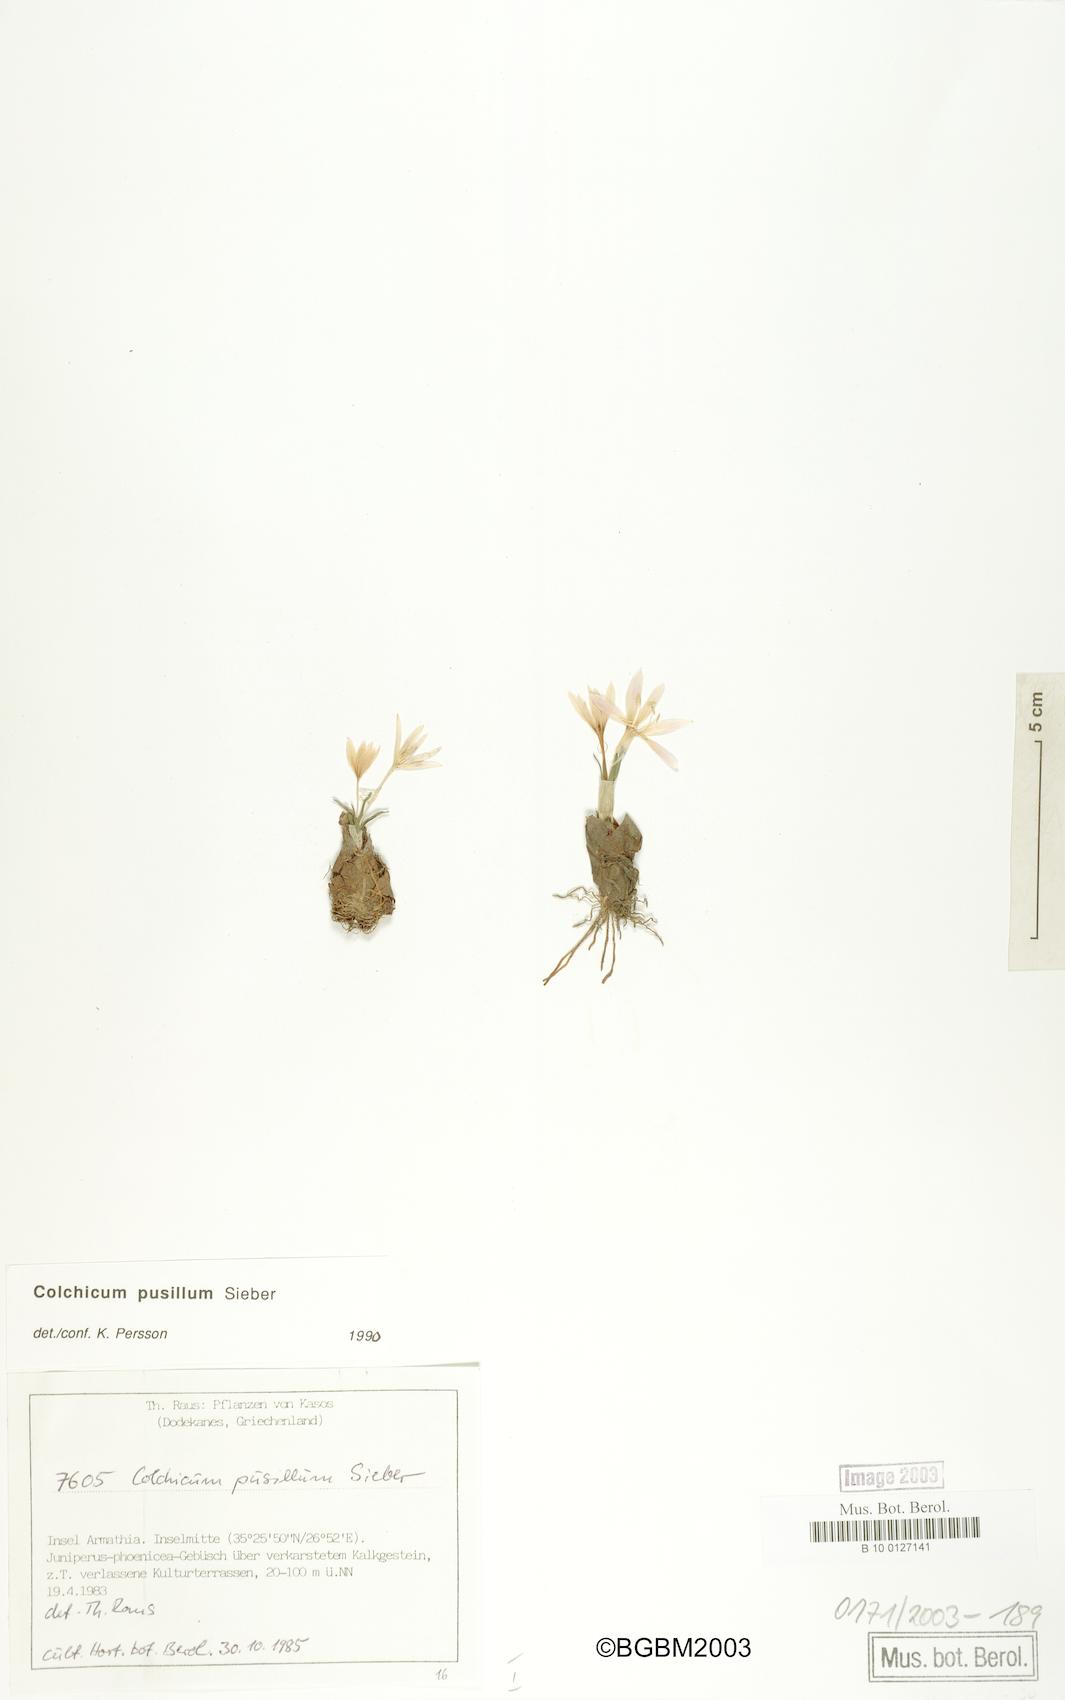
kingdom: Plantae
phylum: Tracheophyta
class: Liliopsida
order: Liliales
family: Colchicaceae
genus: Colchicum
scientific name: Colchicum pusillum
